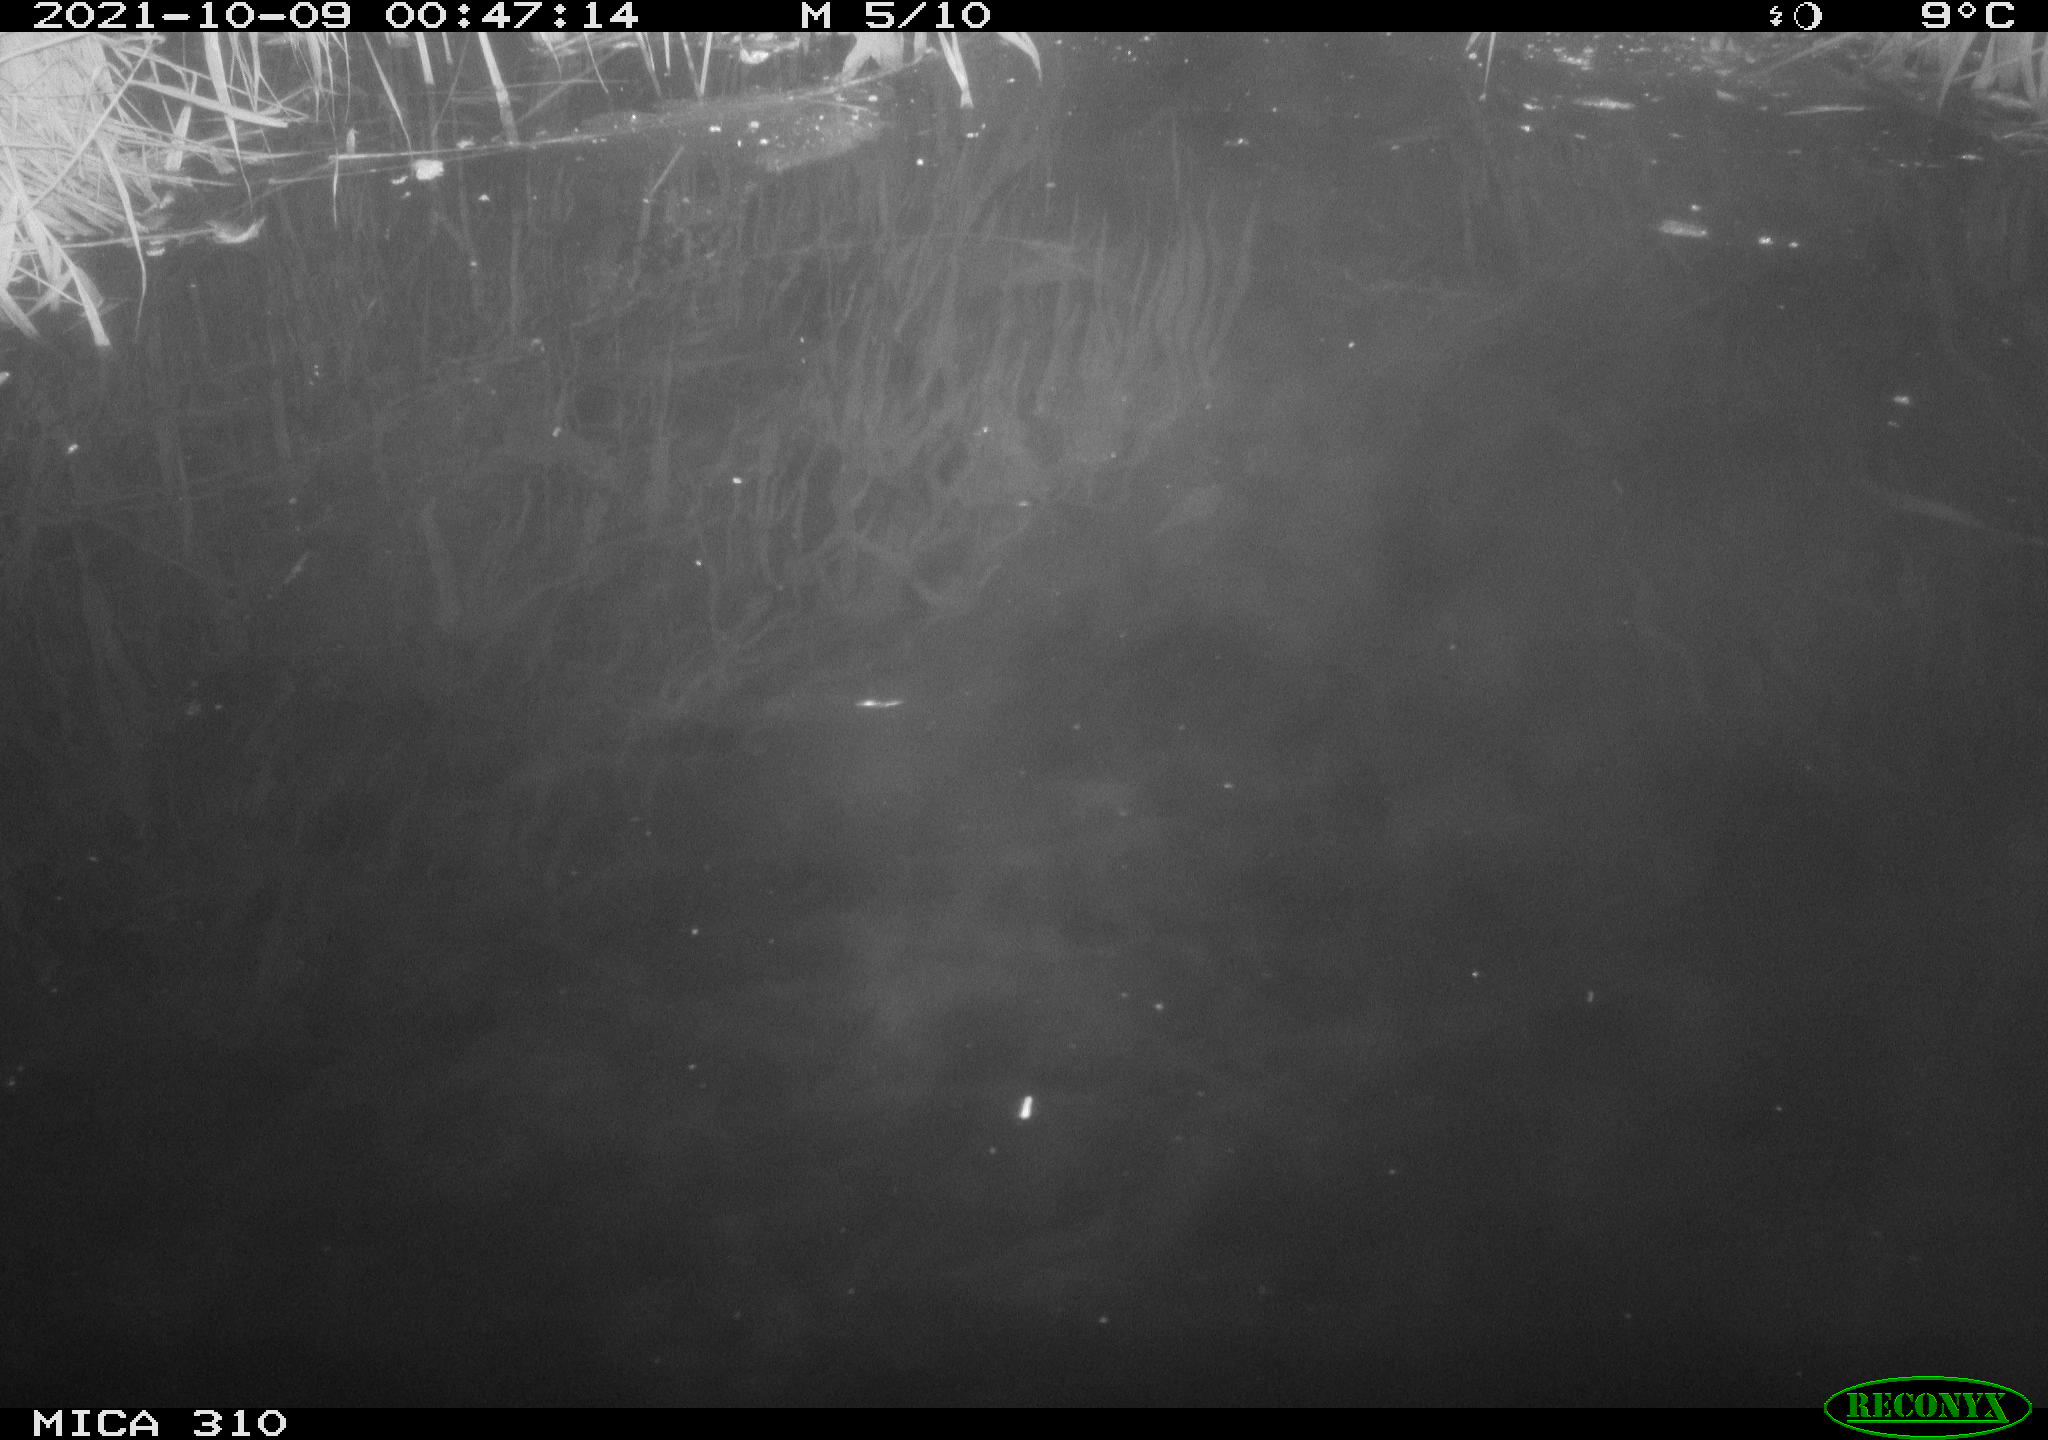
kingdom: Animalia
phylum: Chordata
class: Mammalia
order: Rodentia
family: Muridae
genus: Rattus
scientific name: Rattus norvegicus
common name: Brown rat
